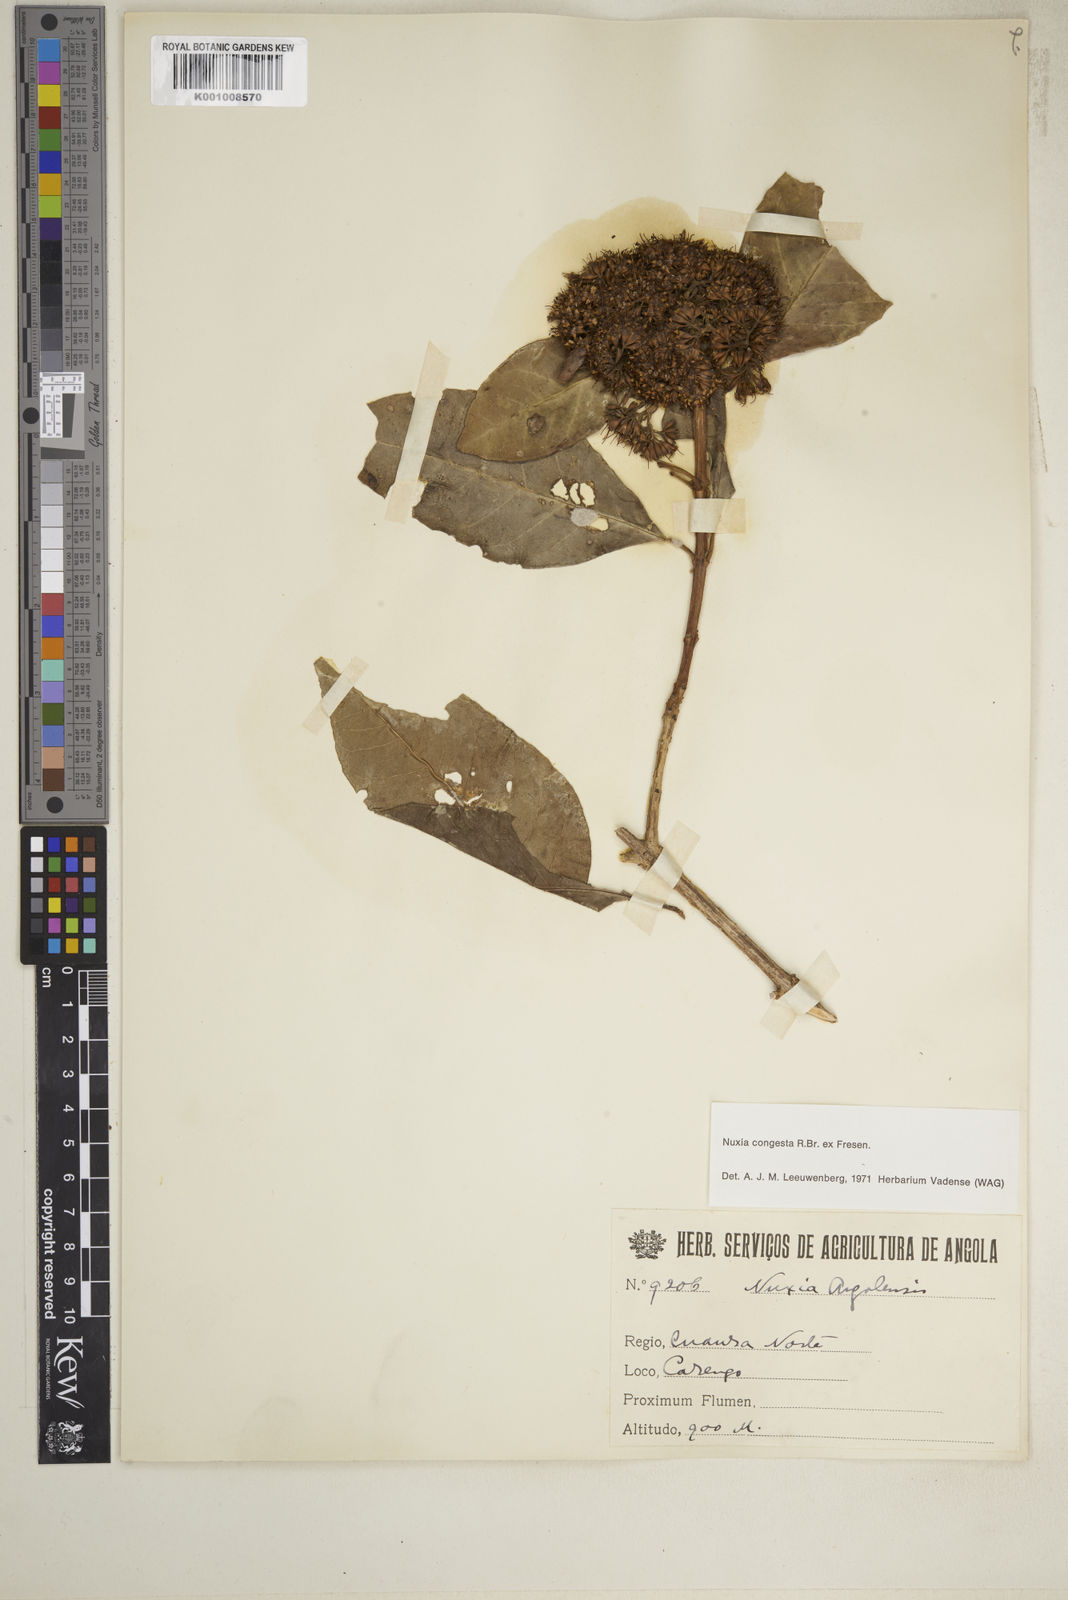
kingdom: Plantae
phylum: Tracheophyta
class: Magnoliopsida
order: Lamiales
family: Stilbaceae
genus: Nuxia
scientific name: Nuxia congesta
